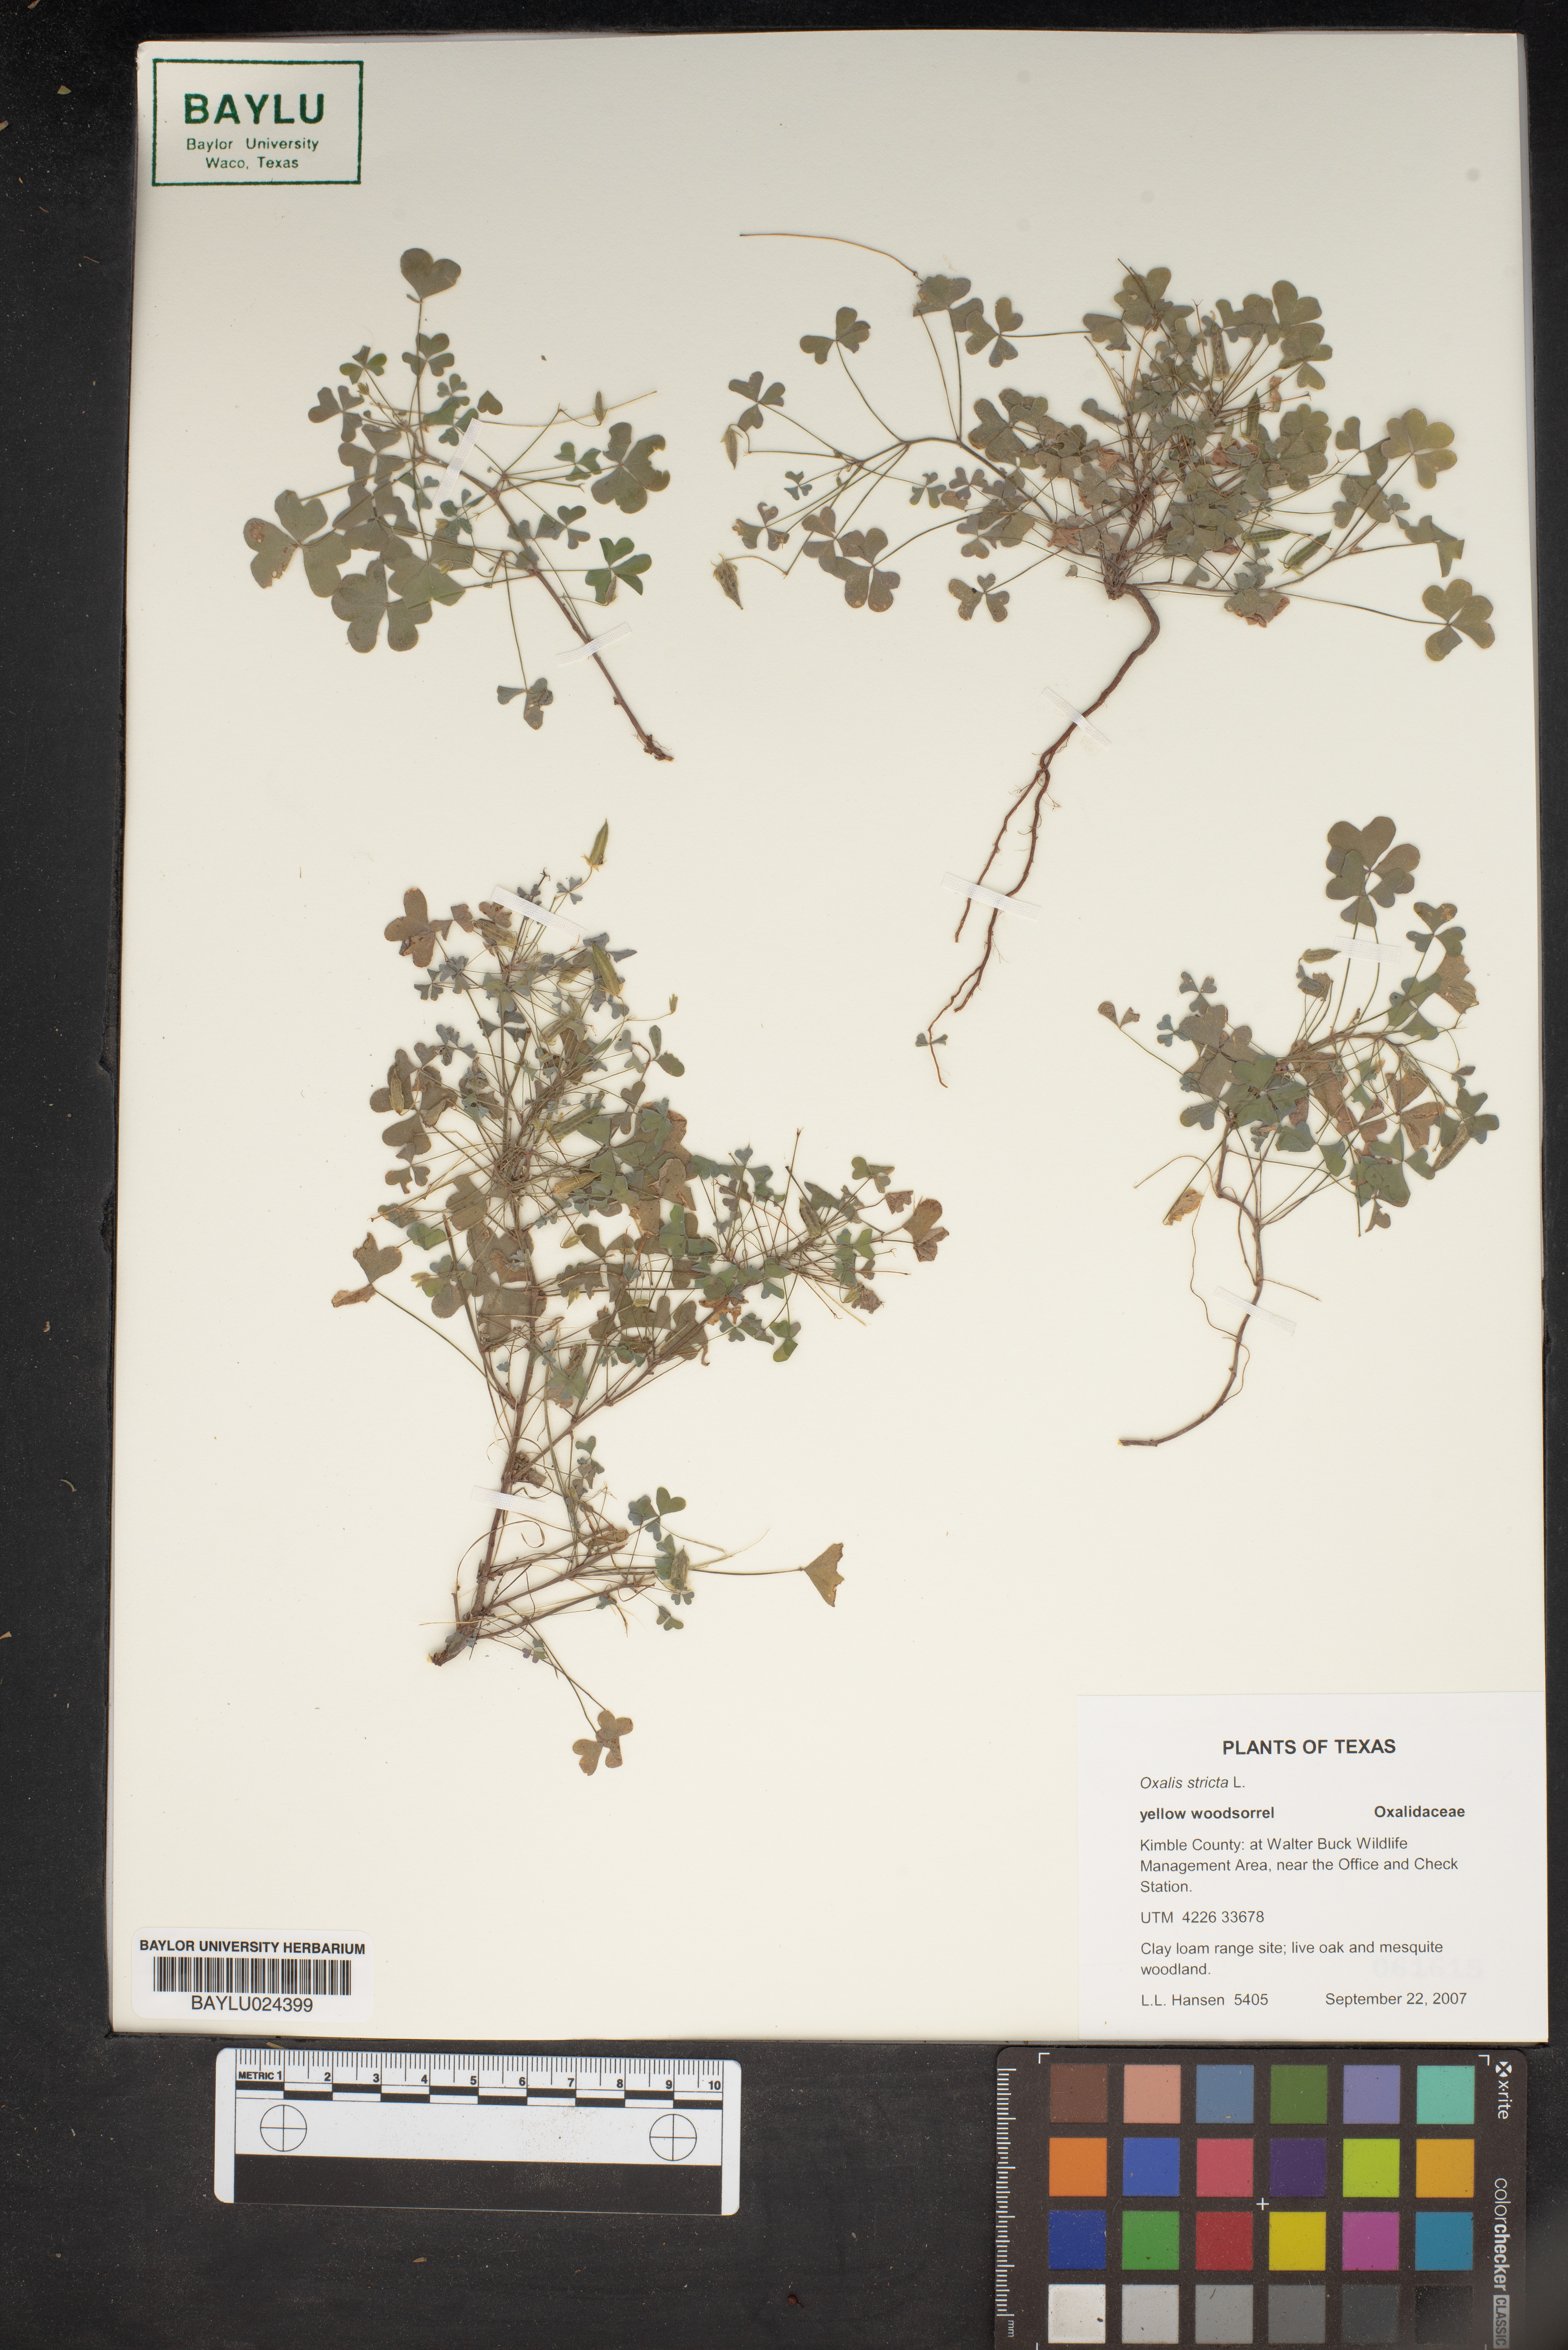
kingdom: Plantae
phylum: Tracheophyta
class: Magnoliopsida
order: Oxalidales
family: Oxalidaceae
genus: Oxalis
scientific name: Oxalis stricta
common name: Upright yellow-sorrel
